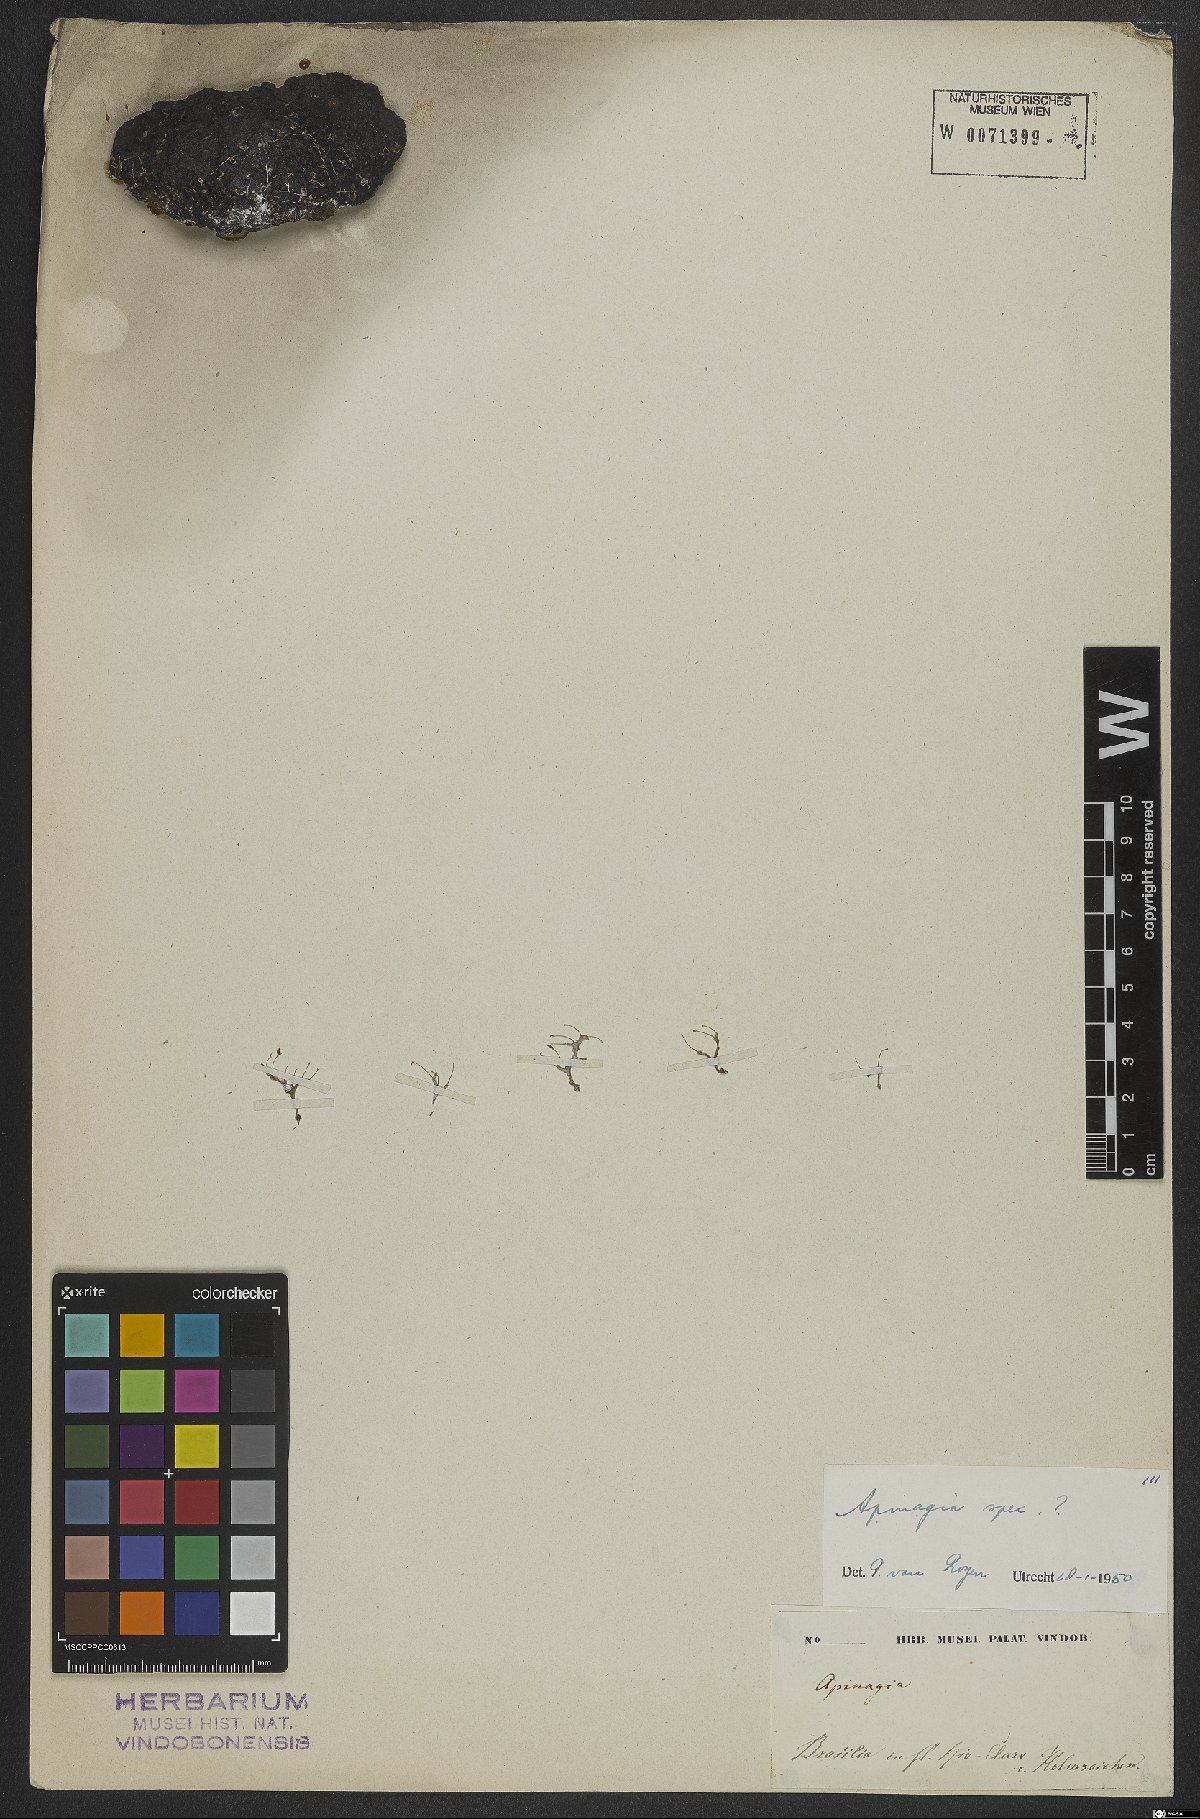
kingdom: Plantae
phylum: Tracheophyta
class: Magnoliopsida
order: Malpighiales
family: Podostemaceae
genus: Apinagia
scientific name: Apinagia
